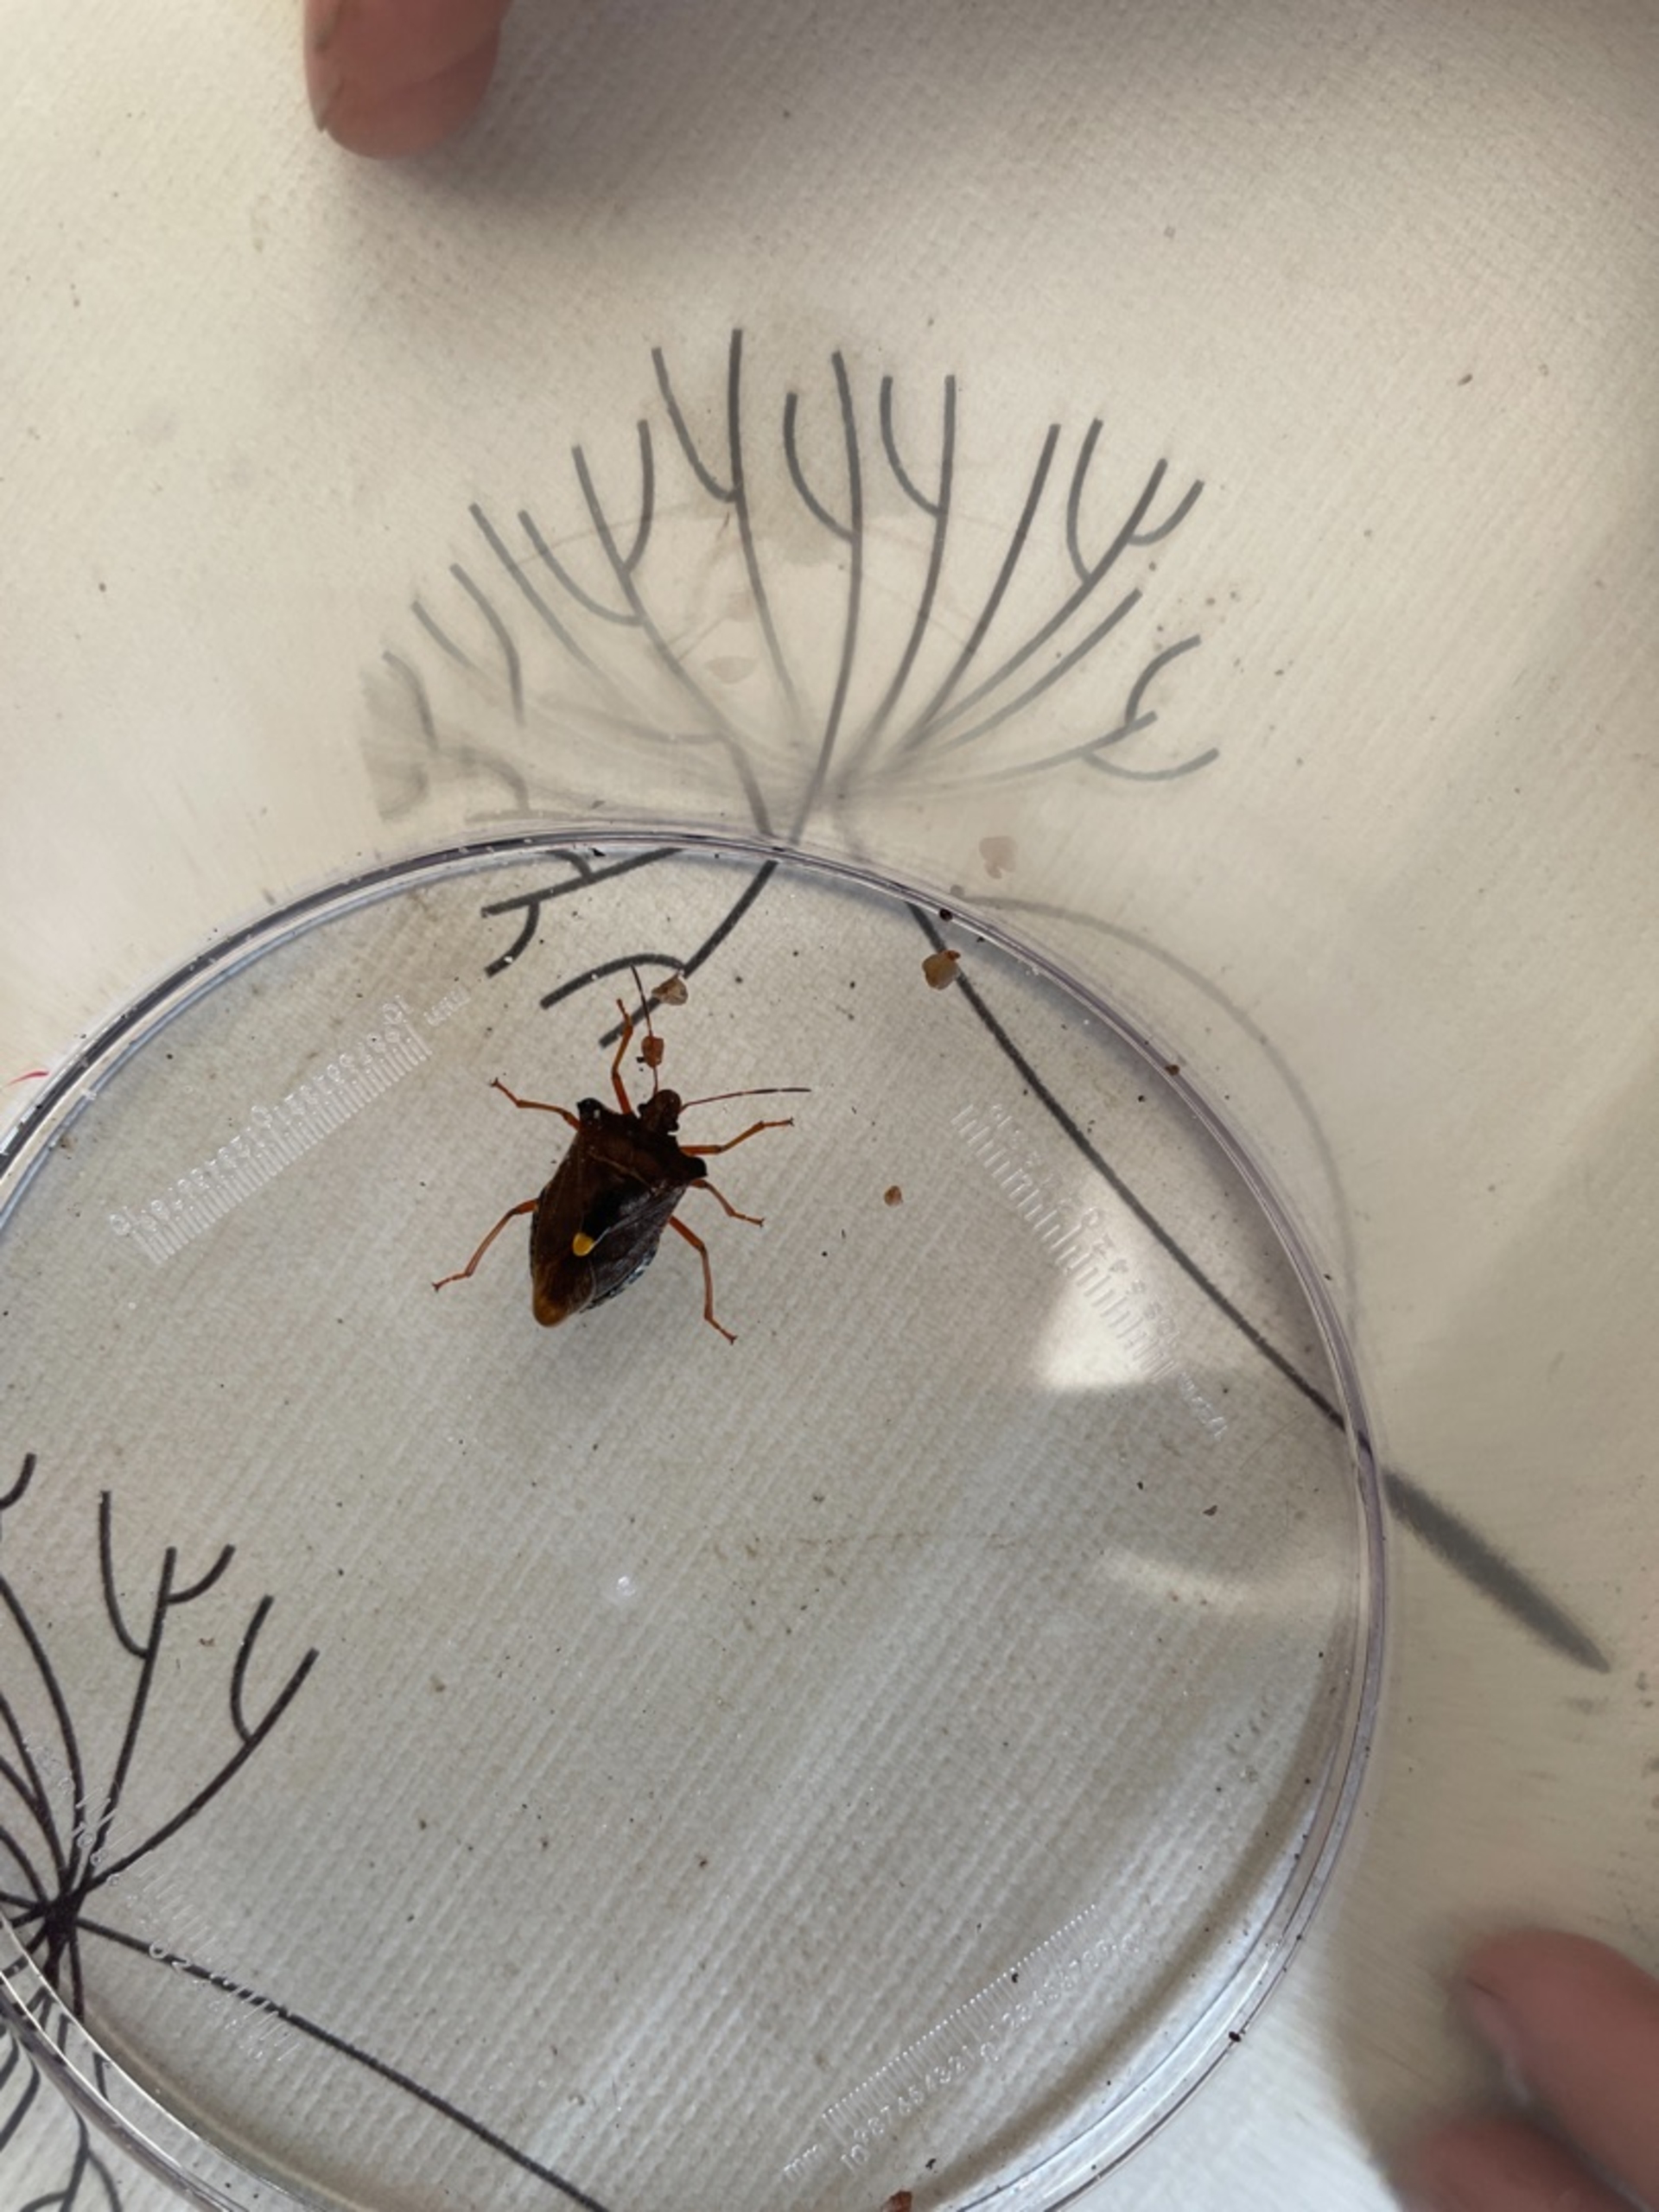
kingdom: Animalia
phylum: Arthropoda
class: Insecta
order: Hemiptera
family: Pentatomidae
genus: Pentatoma
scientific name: Pentatoma rufipes
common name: Rødbenet bredtæge
